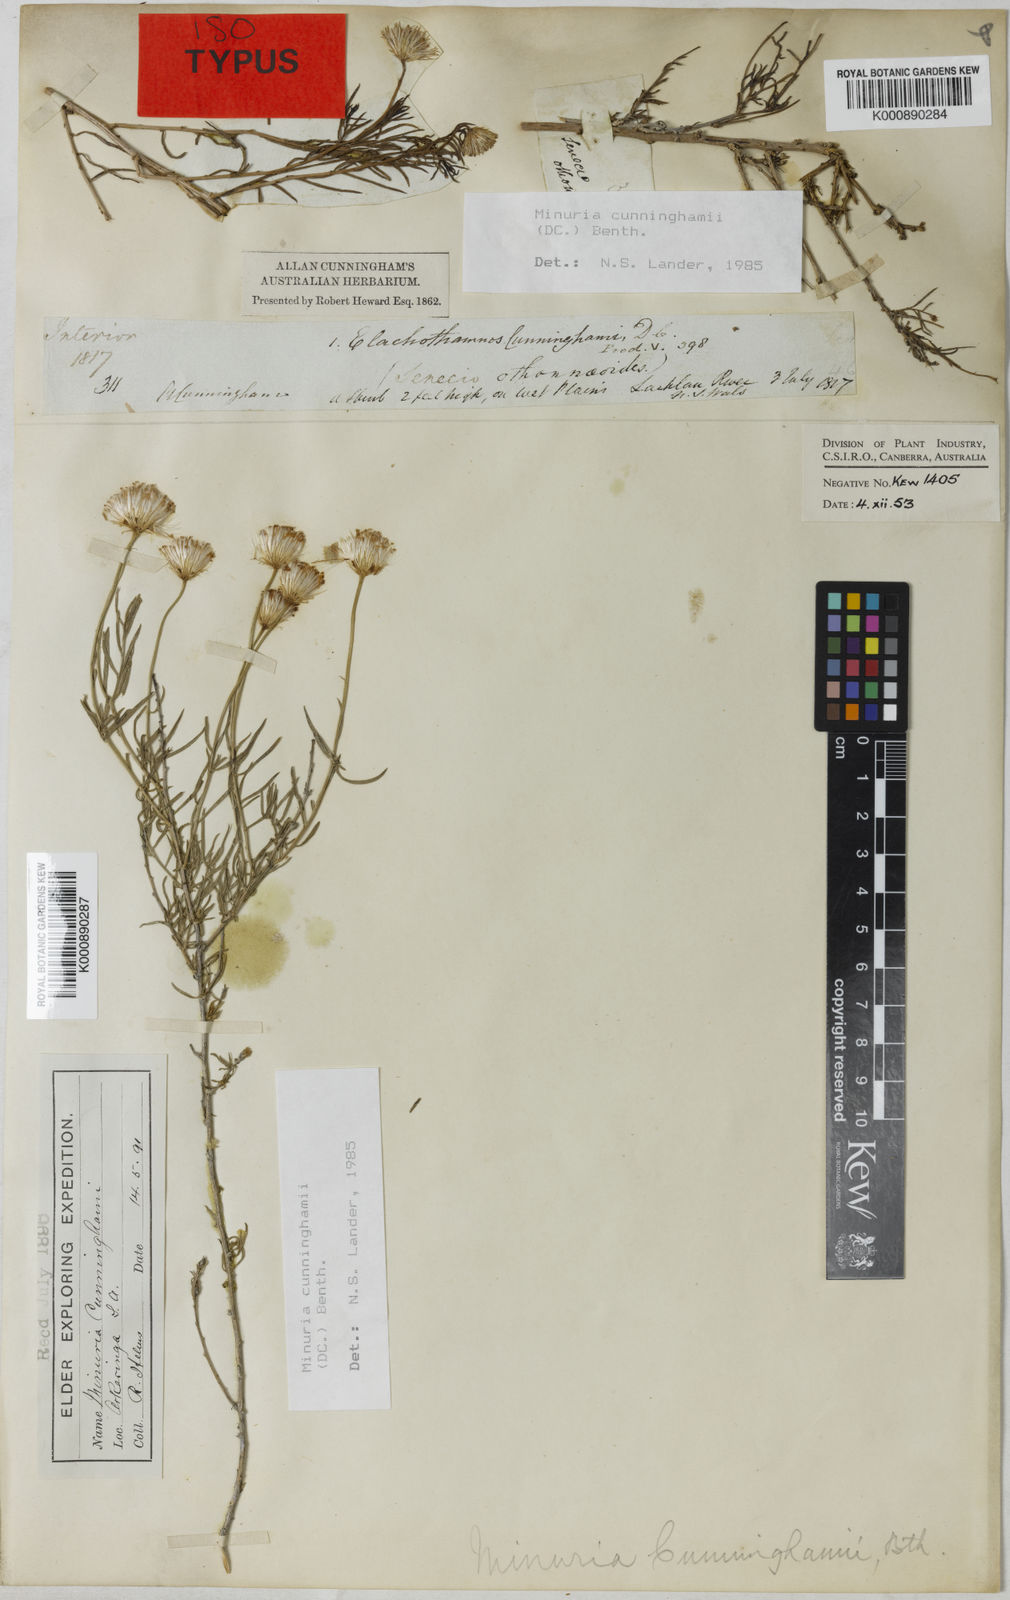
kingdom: Plantae
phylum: Tracheophyta
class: Magnoliopsida
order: Asterales
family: Asteraceae
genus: Minuria
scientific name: Minuria cunninghamii
